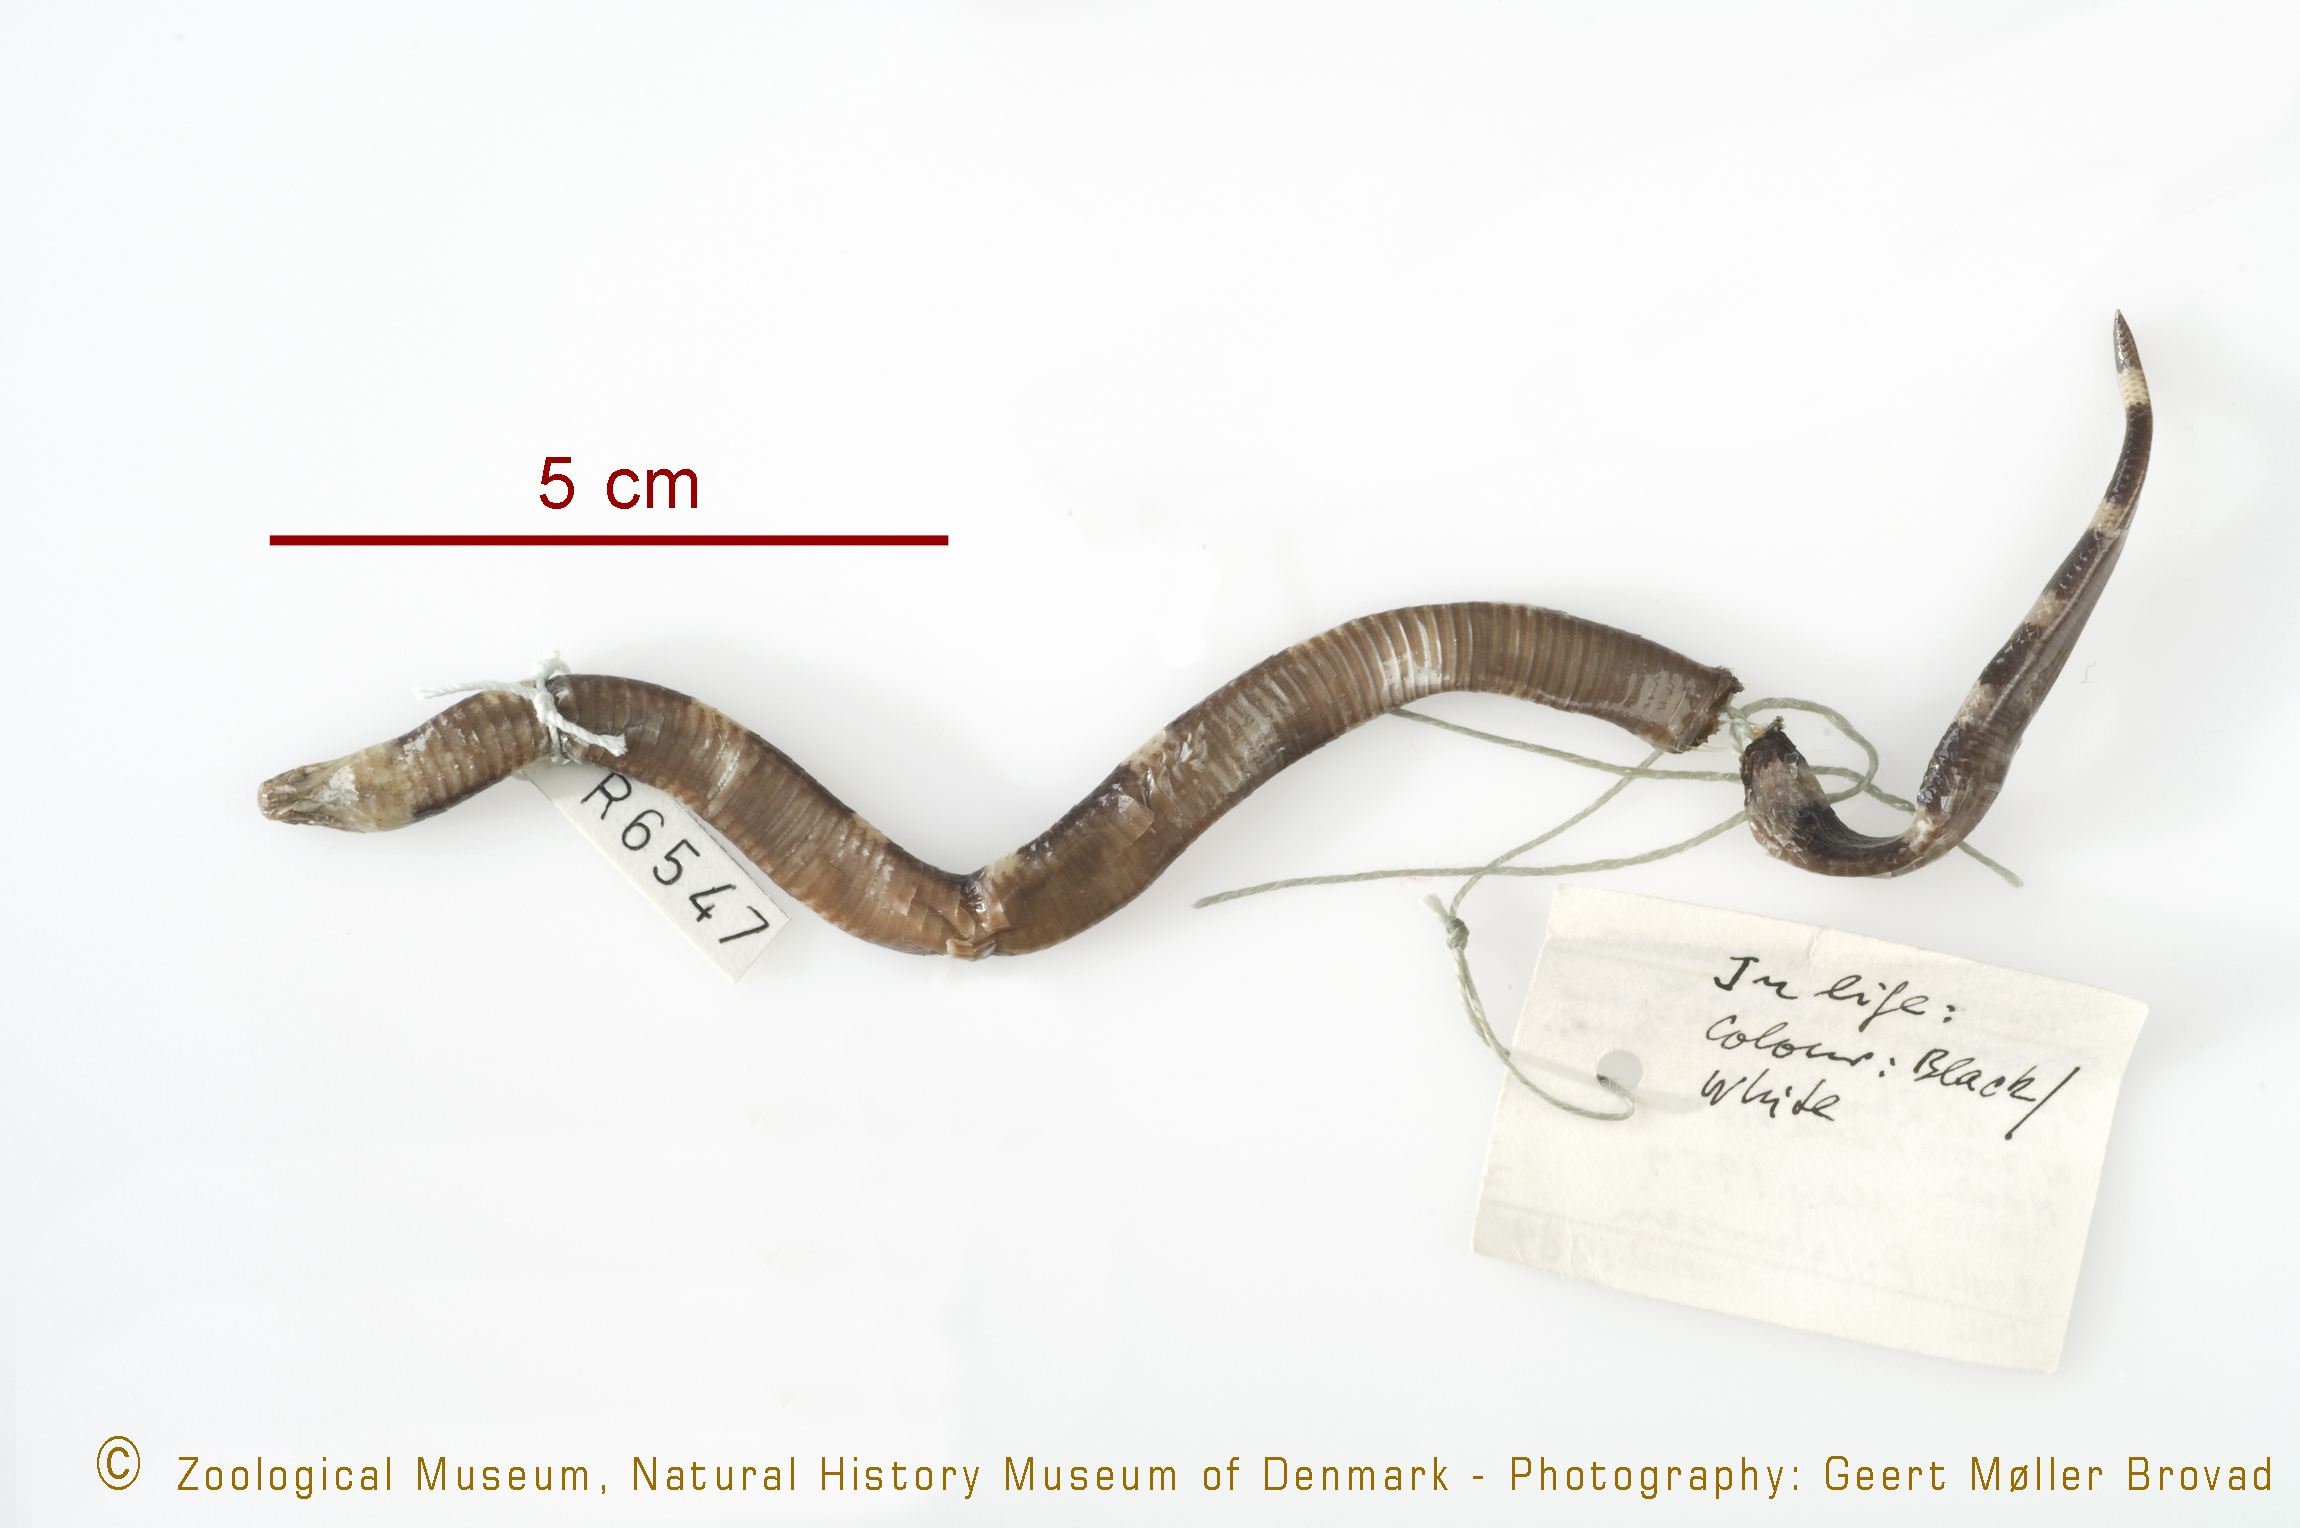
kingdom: Animalia
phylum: Chordata
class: Squamata
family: Elapidae
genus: Elapsoidea
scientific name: Elapsoidea semiannulata
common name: Angolan garter snake
